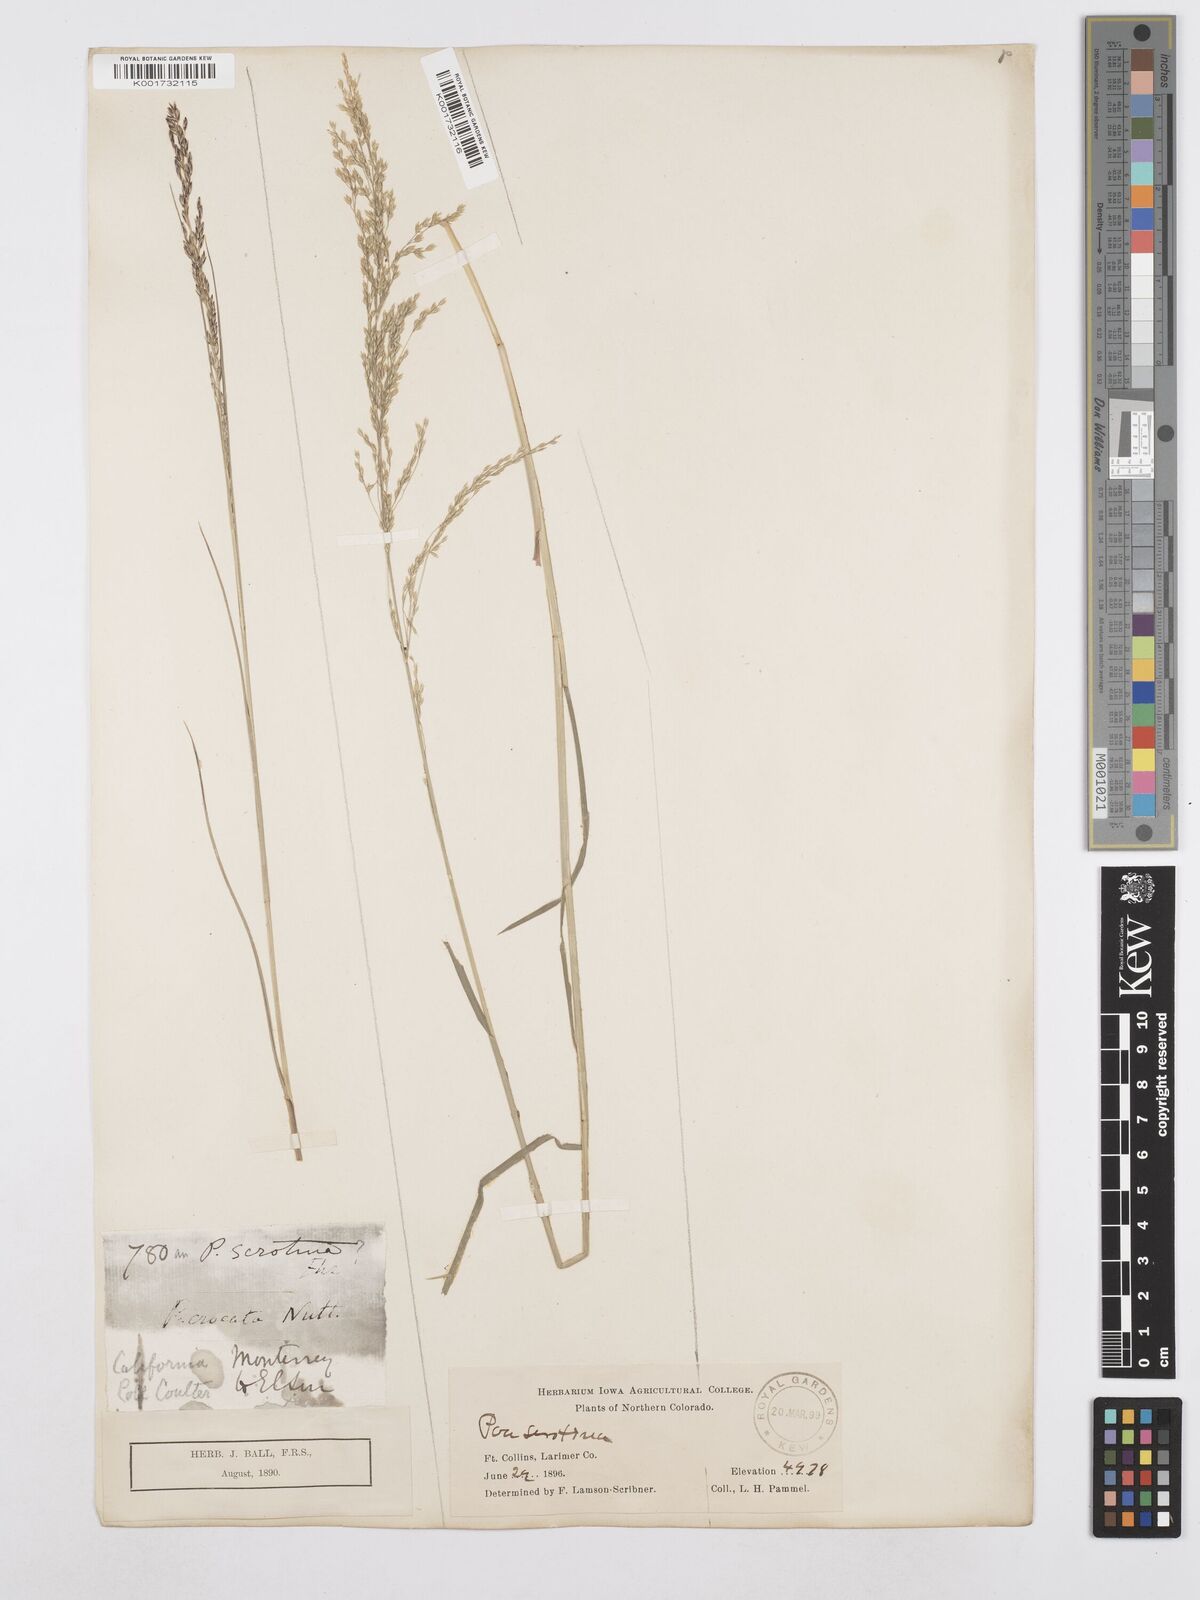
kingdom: Plantae
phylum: Tracheophyta
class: Liliopsida
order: Poales
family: Poaceae
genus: Poa
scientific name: Poa palustris
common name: Swamp meadow-grass
